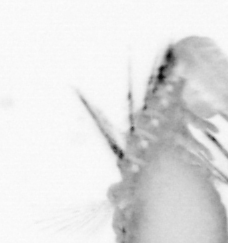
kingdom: Animalia
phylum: Annelida
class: Polychaeta
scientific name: Polychaeta
